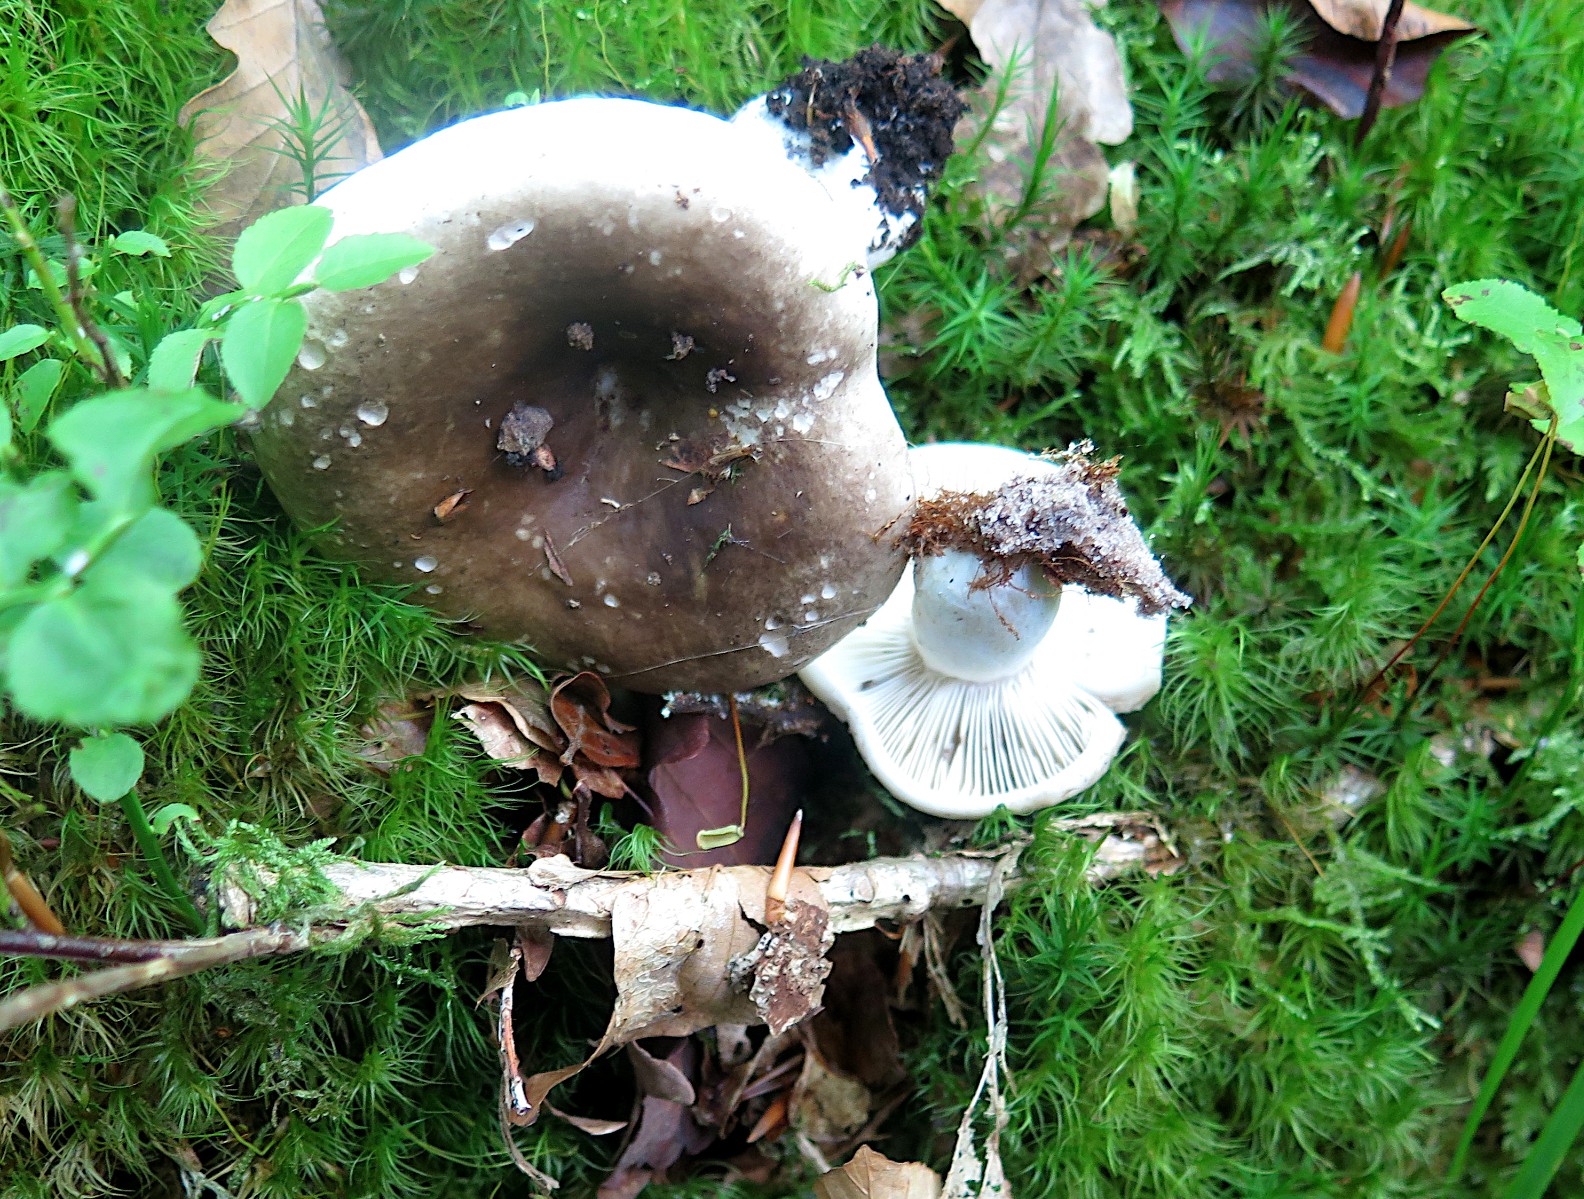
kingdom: Fungi
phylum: Basidiomycota
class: Agaricomycetes
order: Russulales
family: Russulaceae
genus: Russula
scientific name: Russula densifolia
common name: tætbladet skørhat
